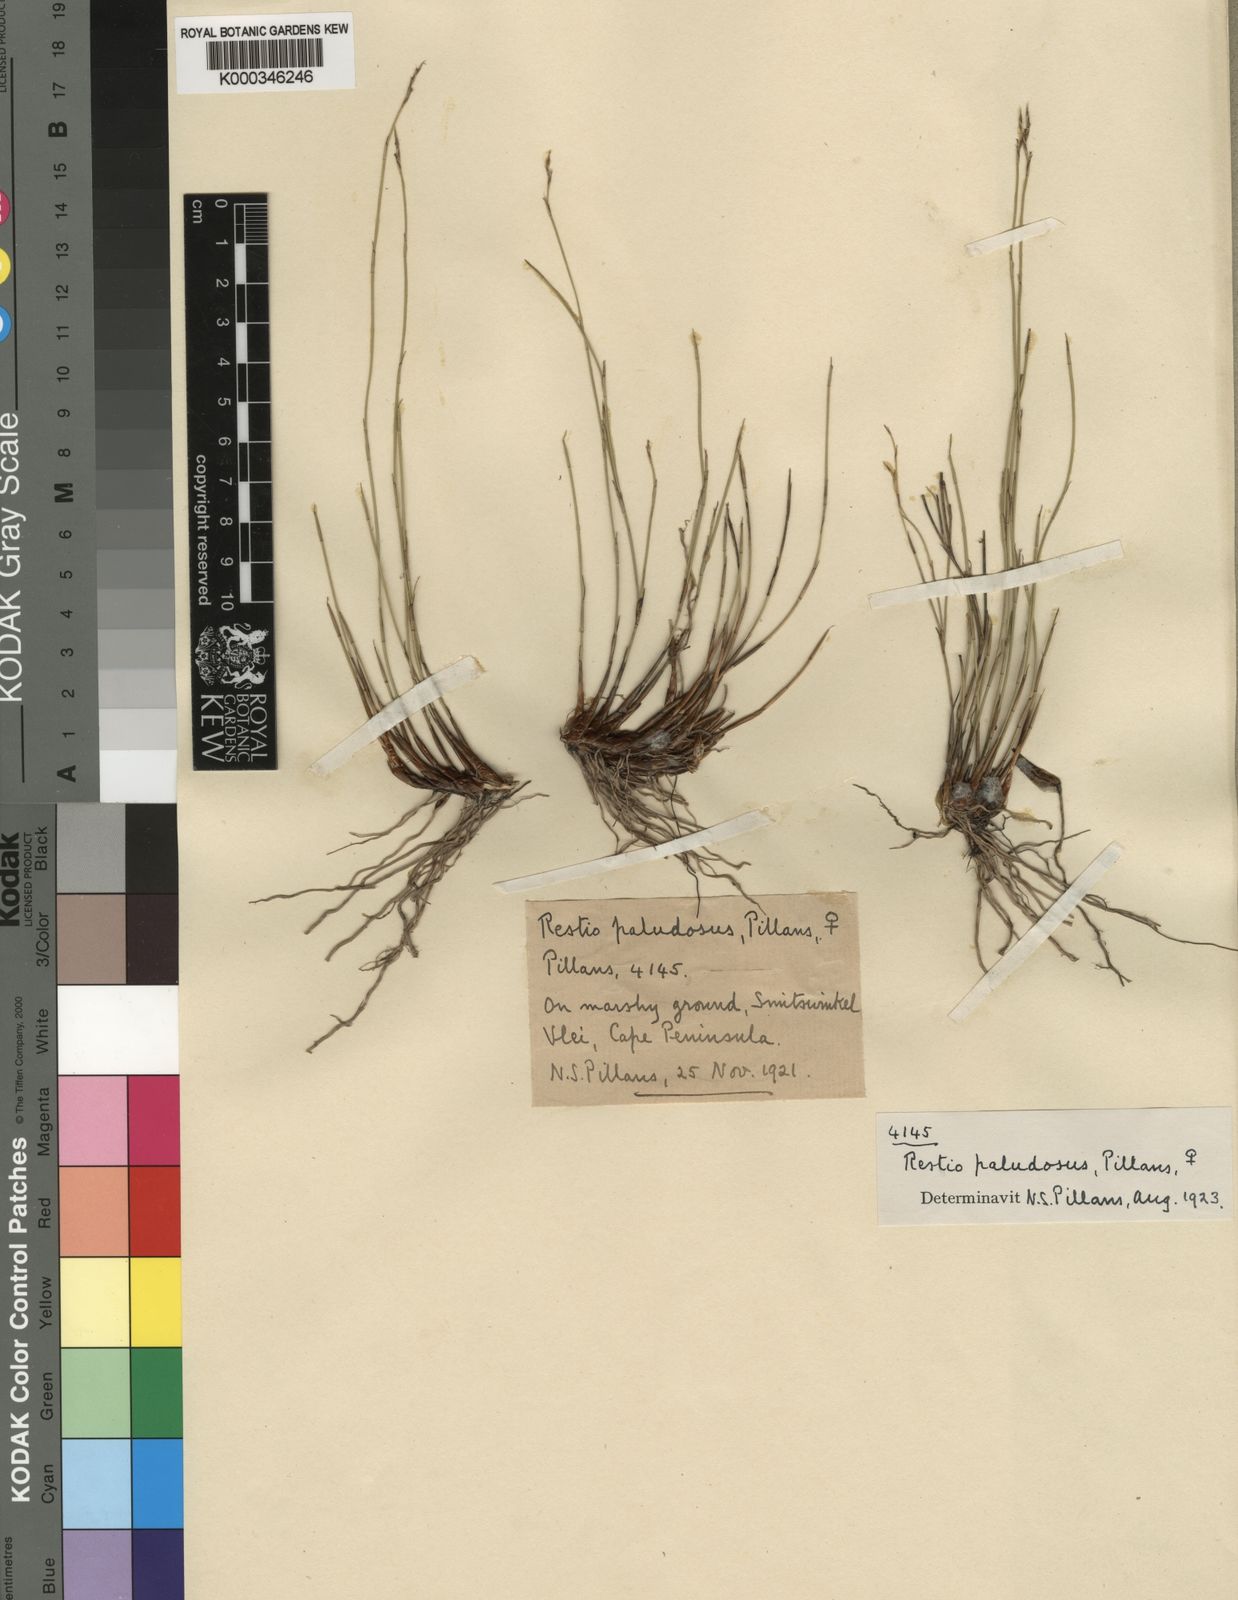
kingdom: Plantae
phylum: Tracheophyta
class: Liliopsida
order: Poales
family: Restionaceae
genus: Restio
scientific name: Restio paludosus
